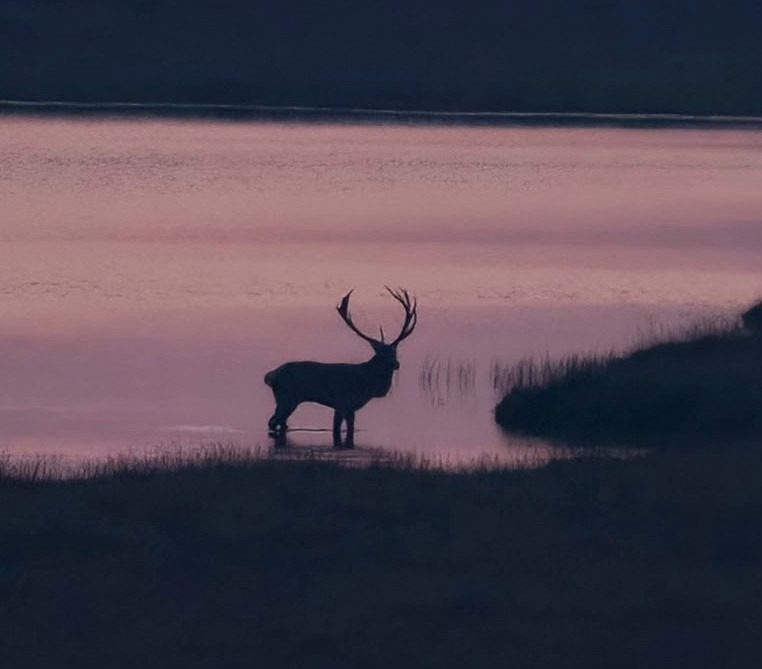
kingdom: Animalia
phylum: Chordata
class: Mammalia
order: Artiodactyla
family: Cervidae
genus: Cervus
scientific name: Cervus elaphus
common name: Krondyr
